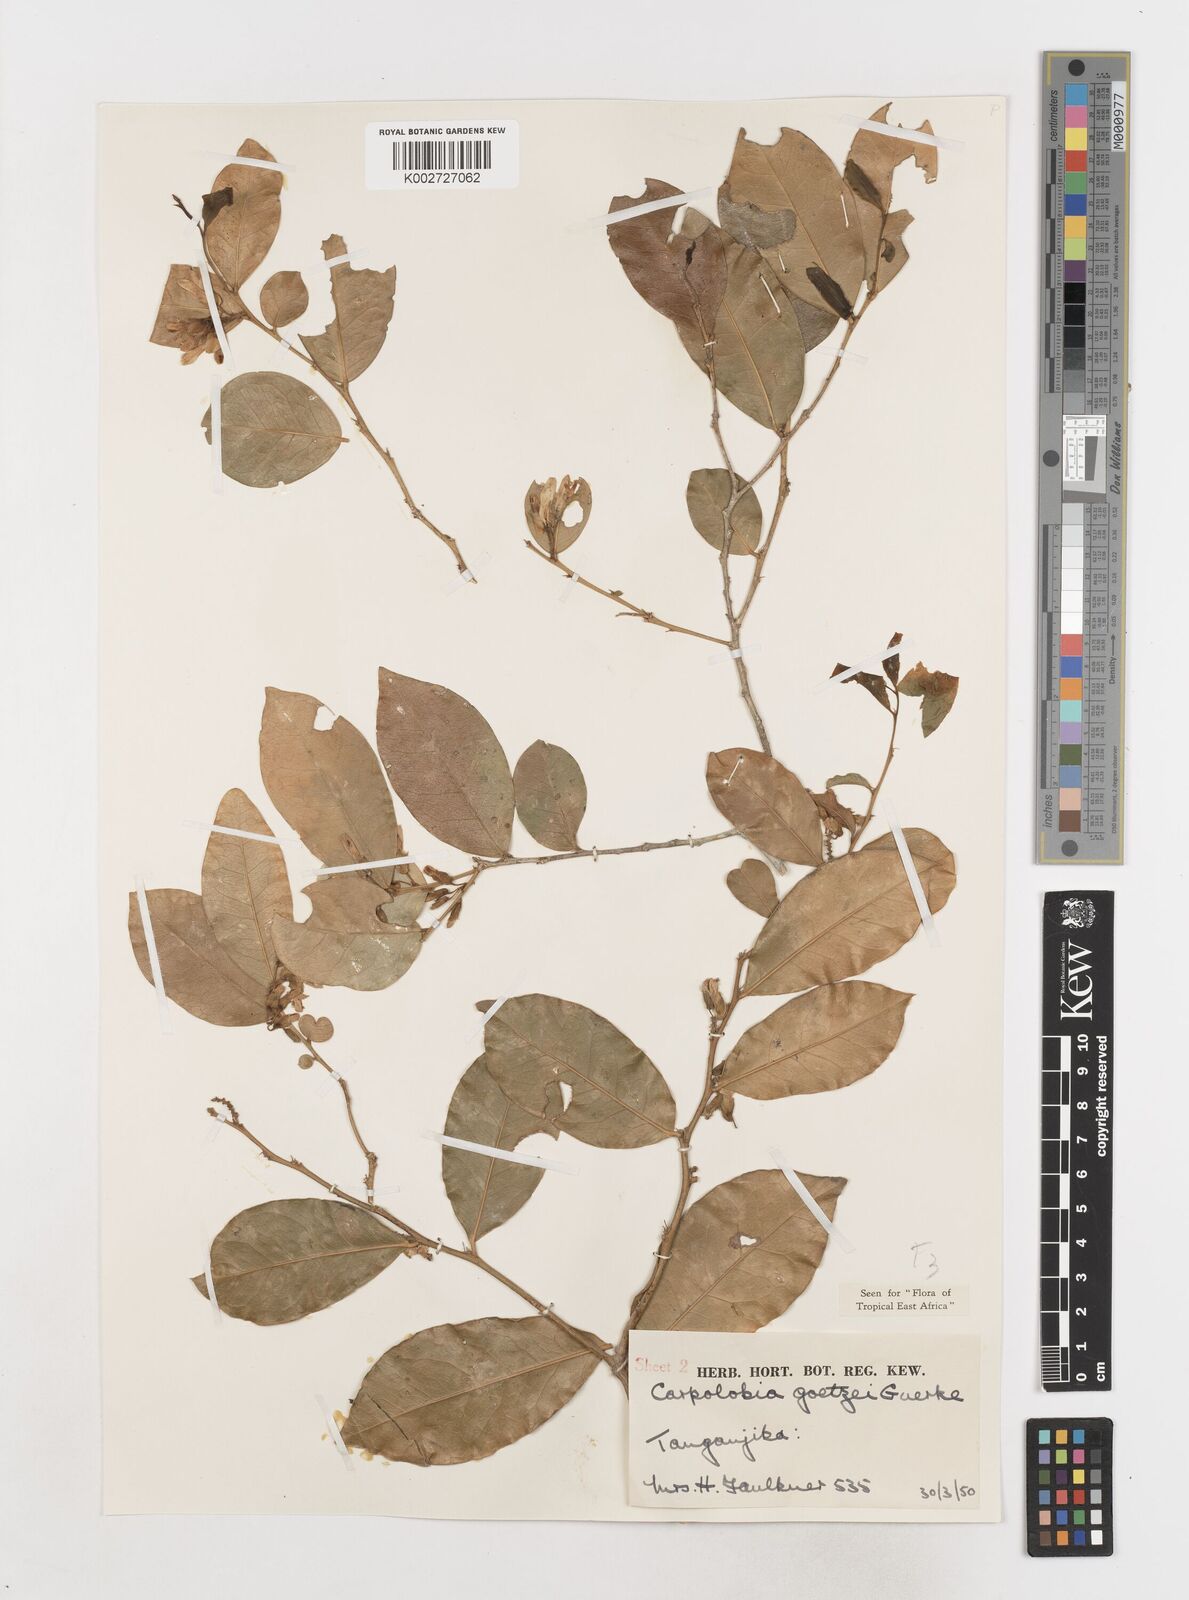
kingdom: Plantae
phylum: Tracheophyta
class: Magnoliopsida
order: Fabales
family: Polygalaceae
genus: Carpolobia
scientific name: Carpolobia goetzei
